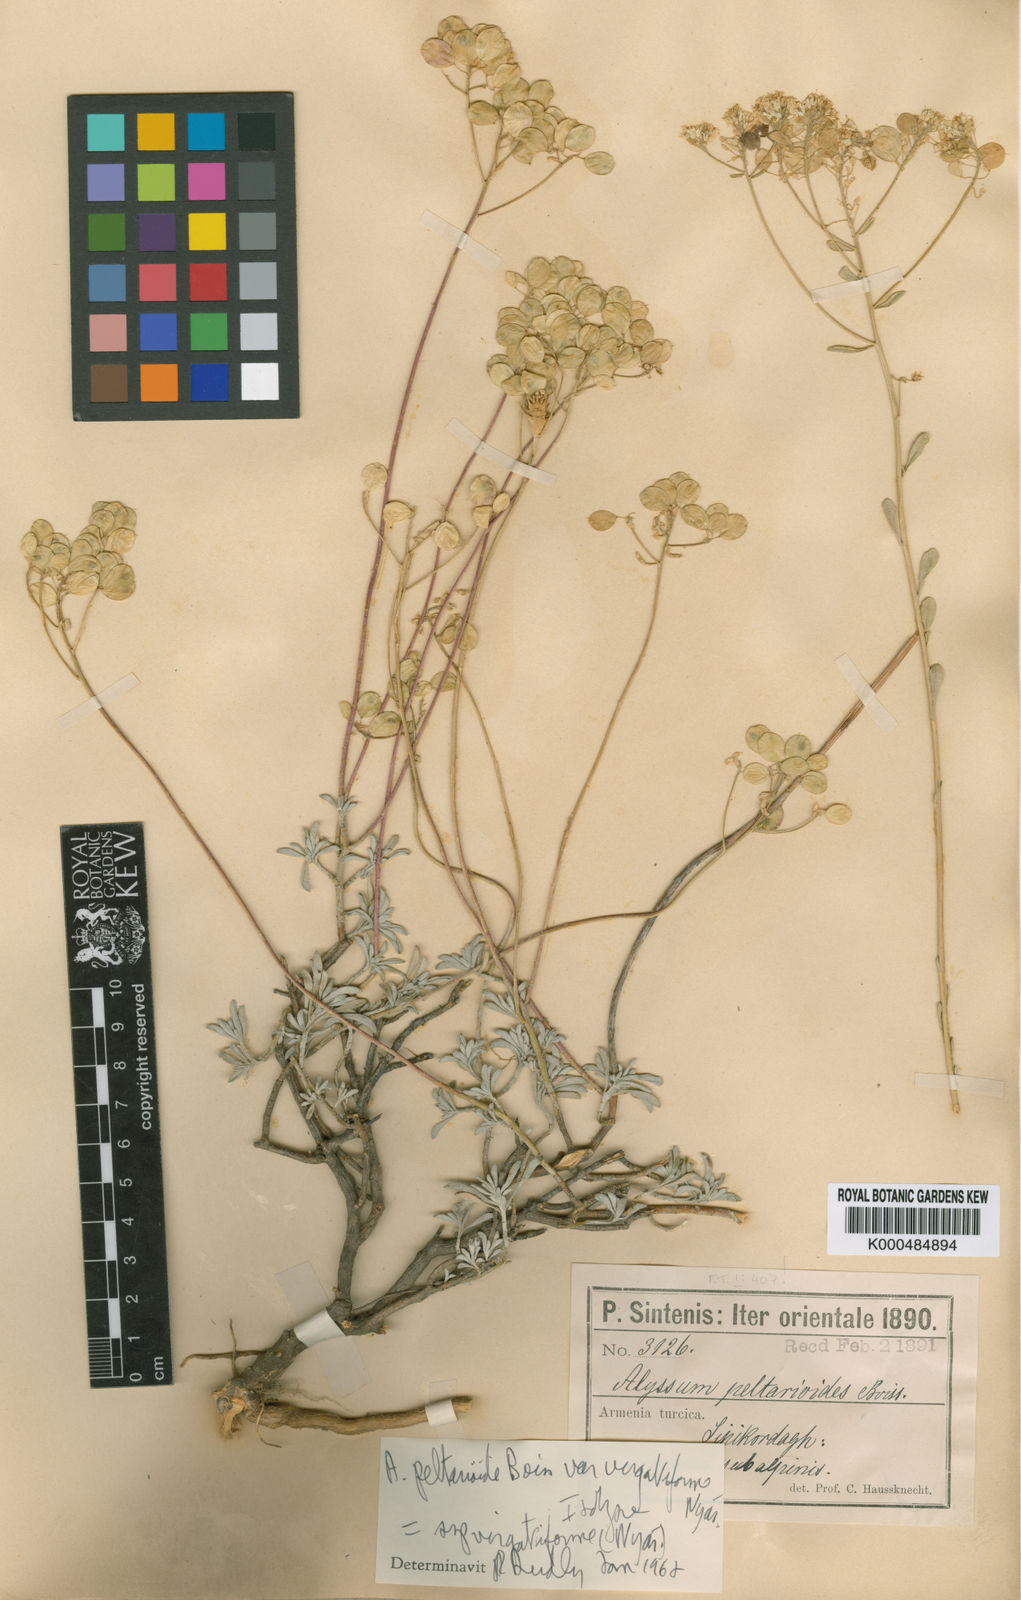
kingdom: Plantae
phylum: Tracheophyta
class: Magnoliopsida
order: Brassicales
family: Brassicaceae
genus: Odontarrhena
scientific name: Odontarrhena peltarioidea
